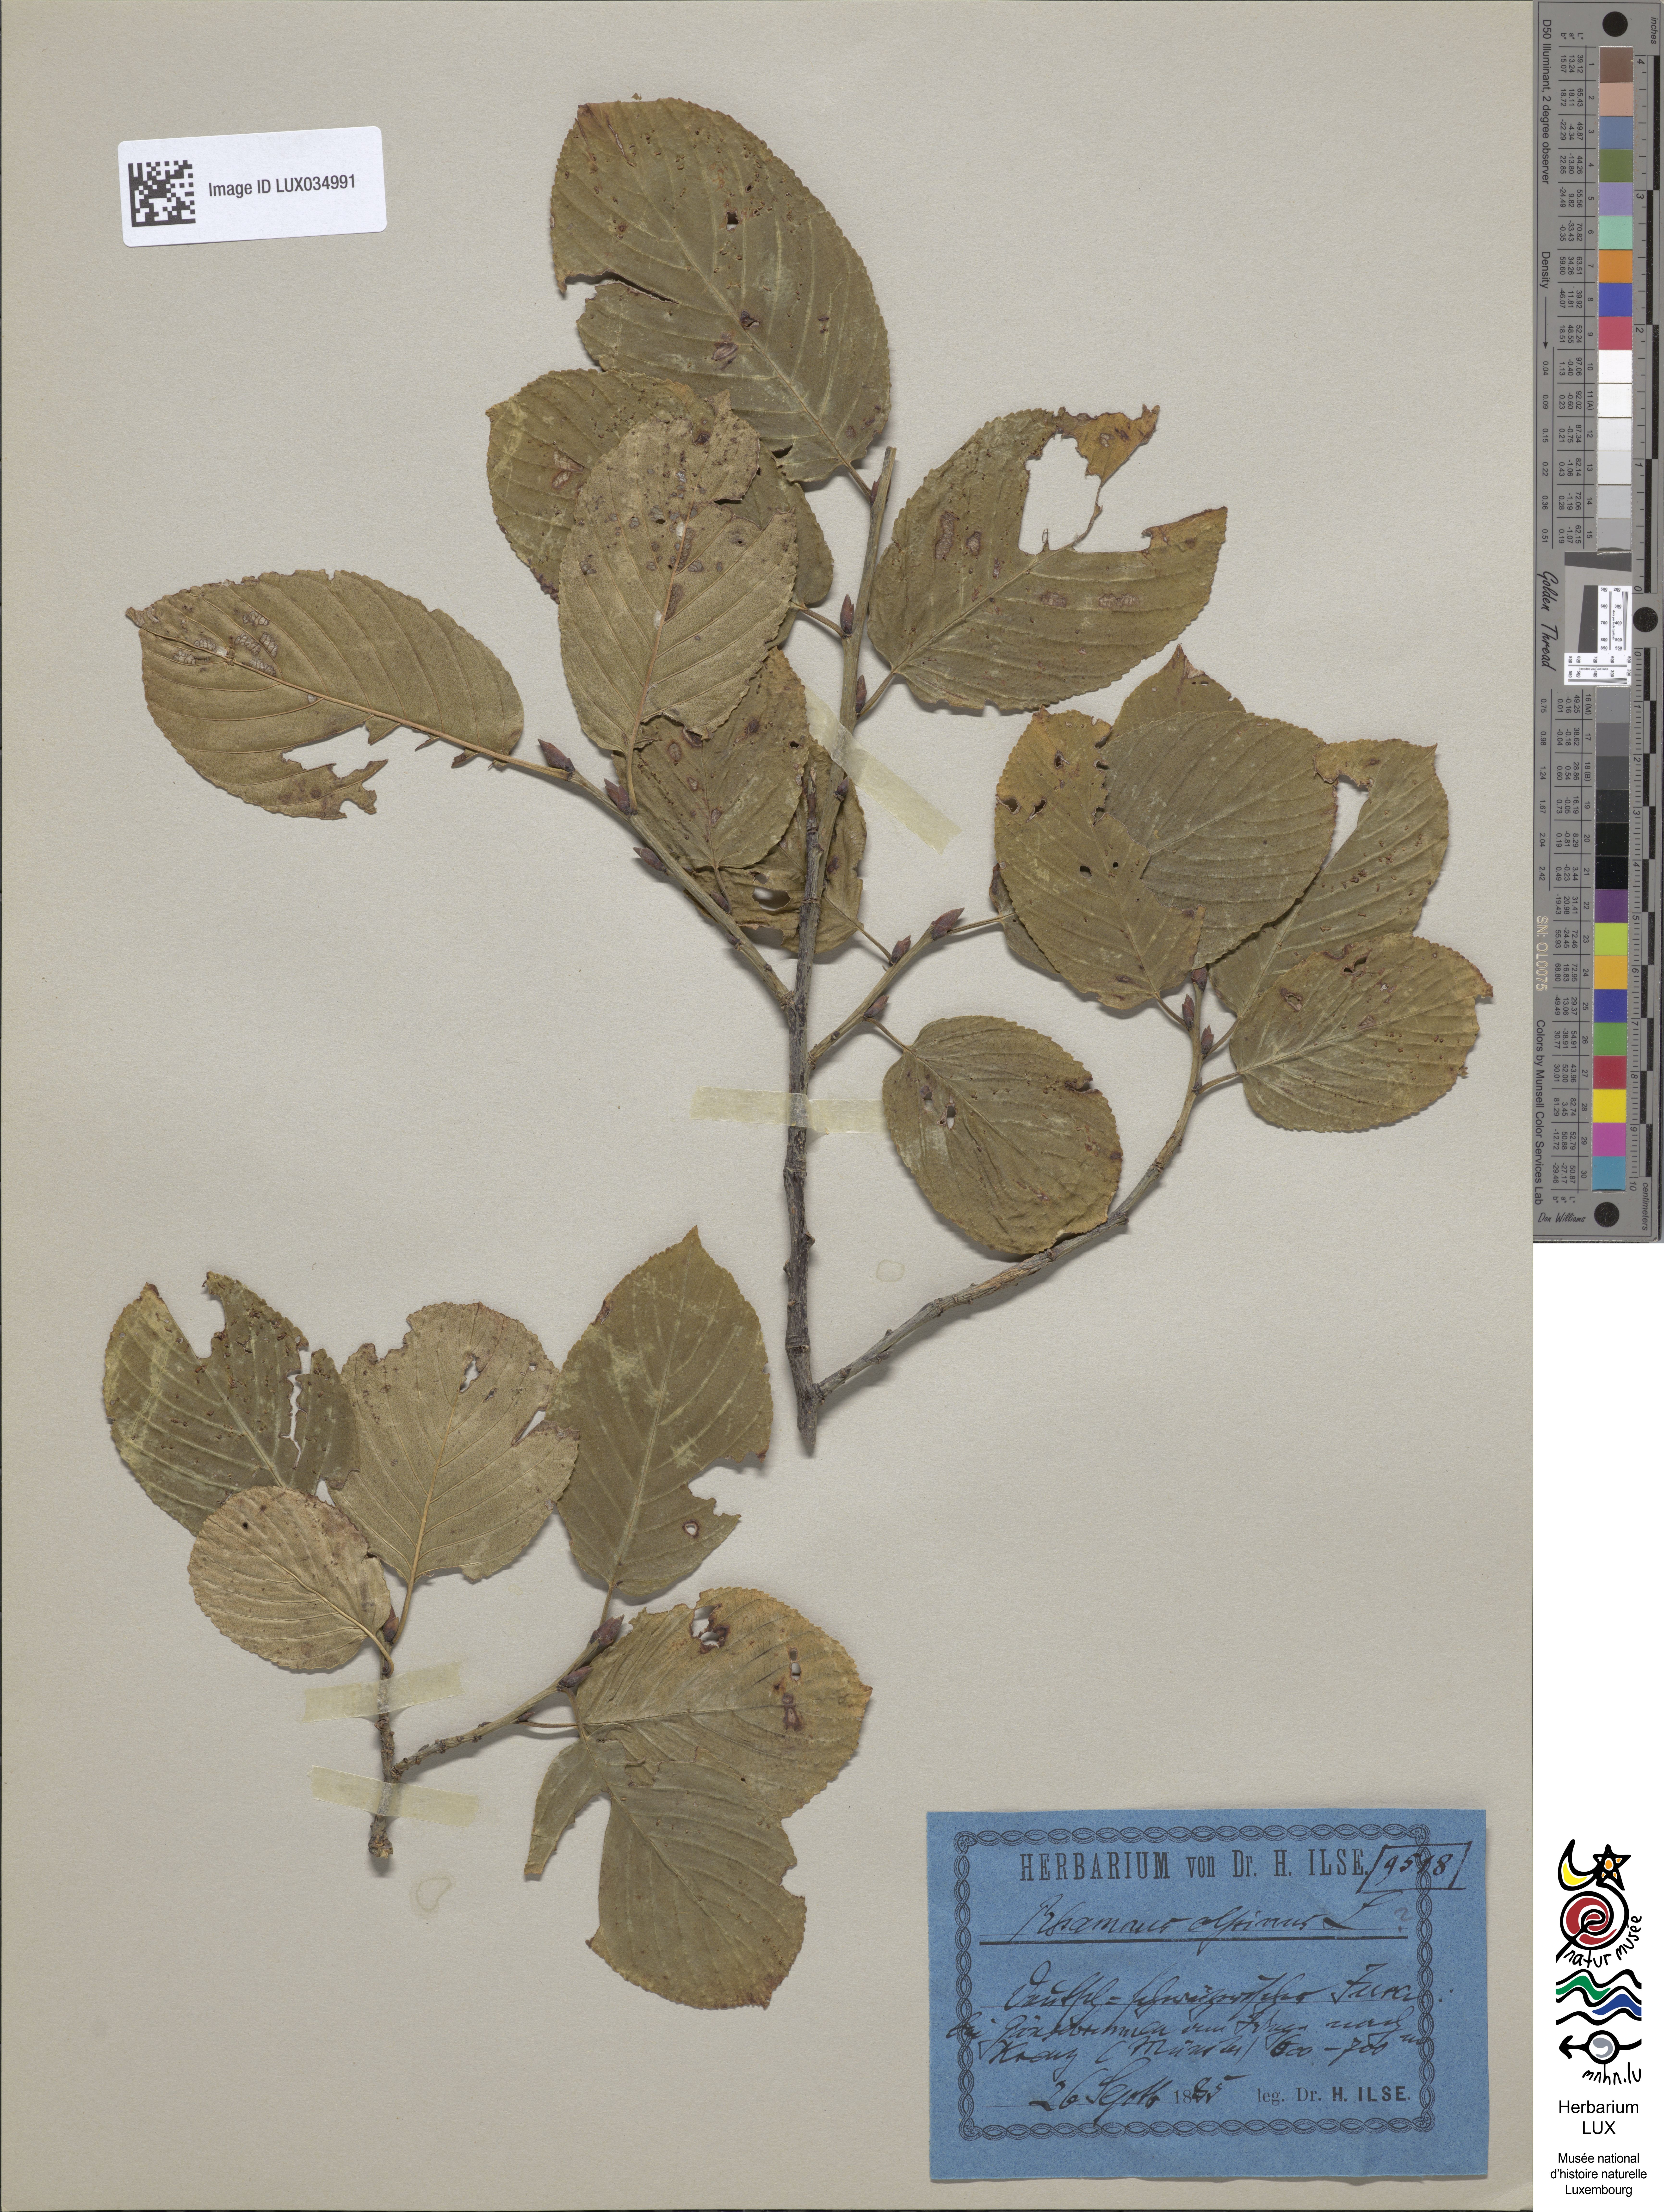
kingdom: Plantae
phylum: Tracheophyta
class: Magnoliopsida
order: Rosales
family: Rhamnaceae
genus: Atadinus
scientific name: Atadinus alpinus
